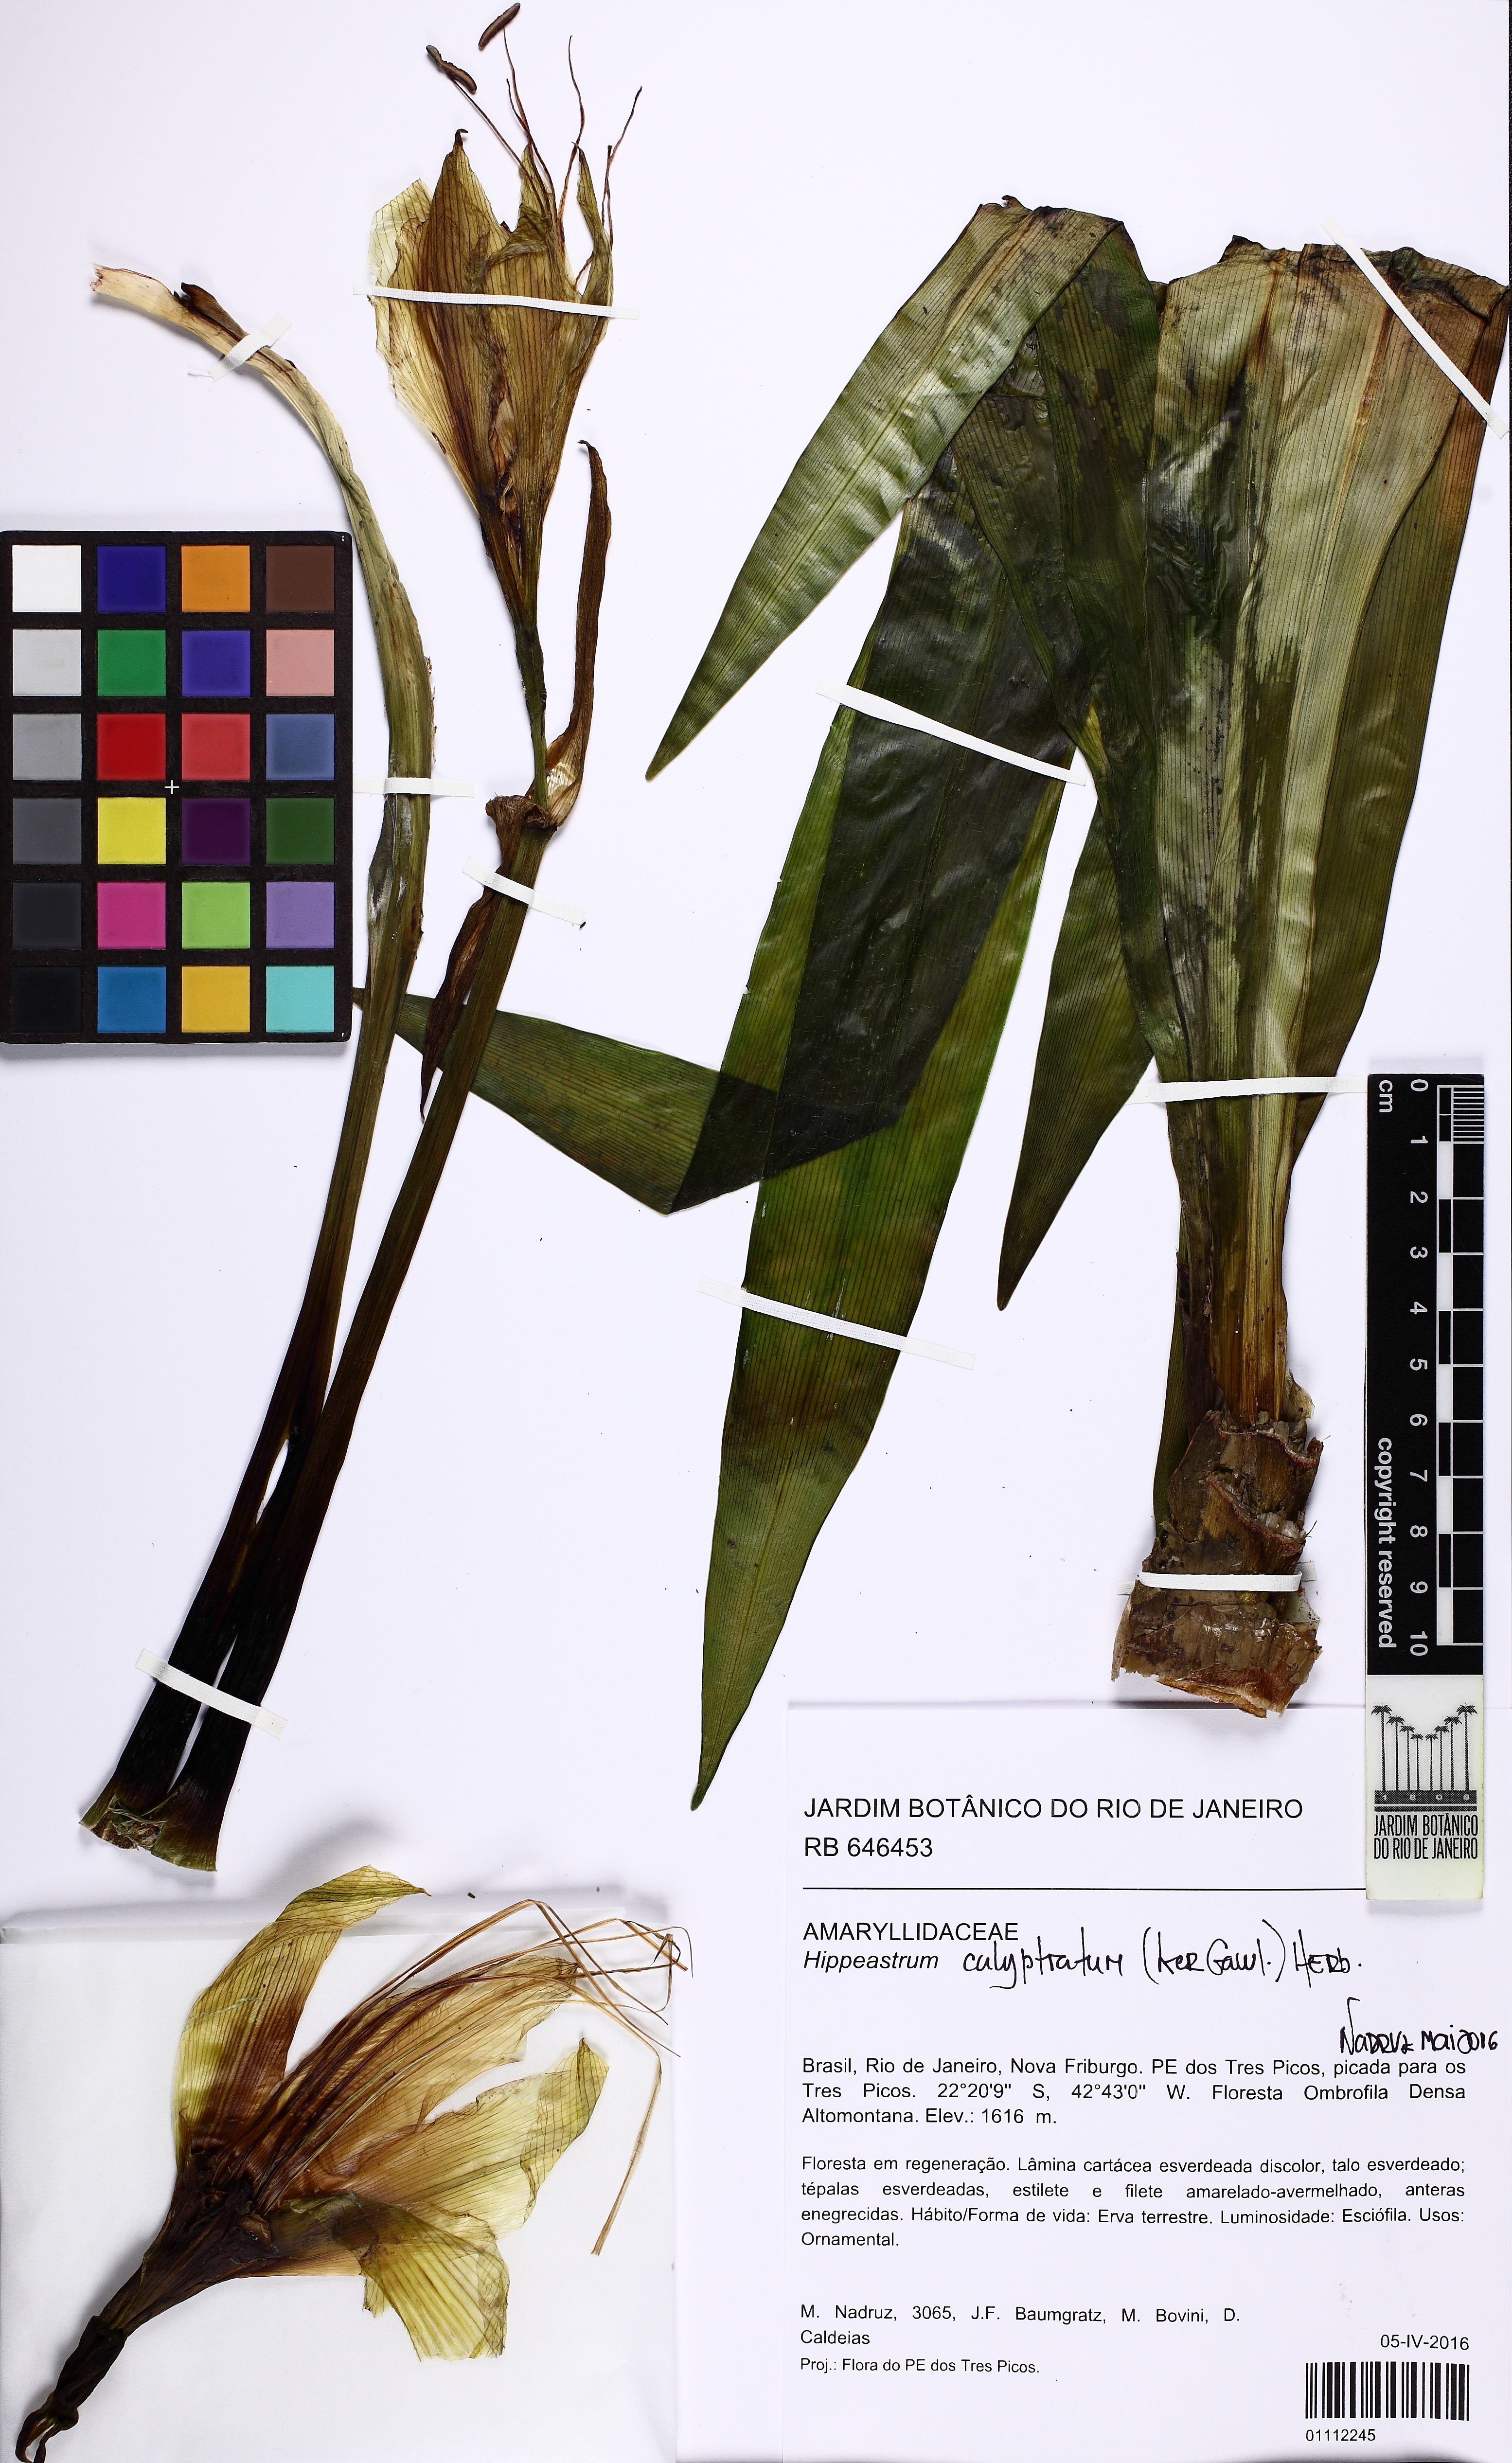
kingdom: Plantae
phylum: Tracheophyta
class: Liliopsida
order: Asparagales
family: Amaryllidaceae
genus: Hippeastrum
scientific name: Hippeastrum calyptratum
